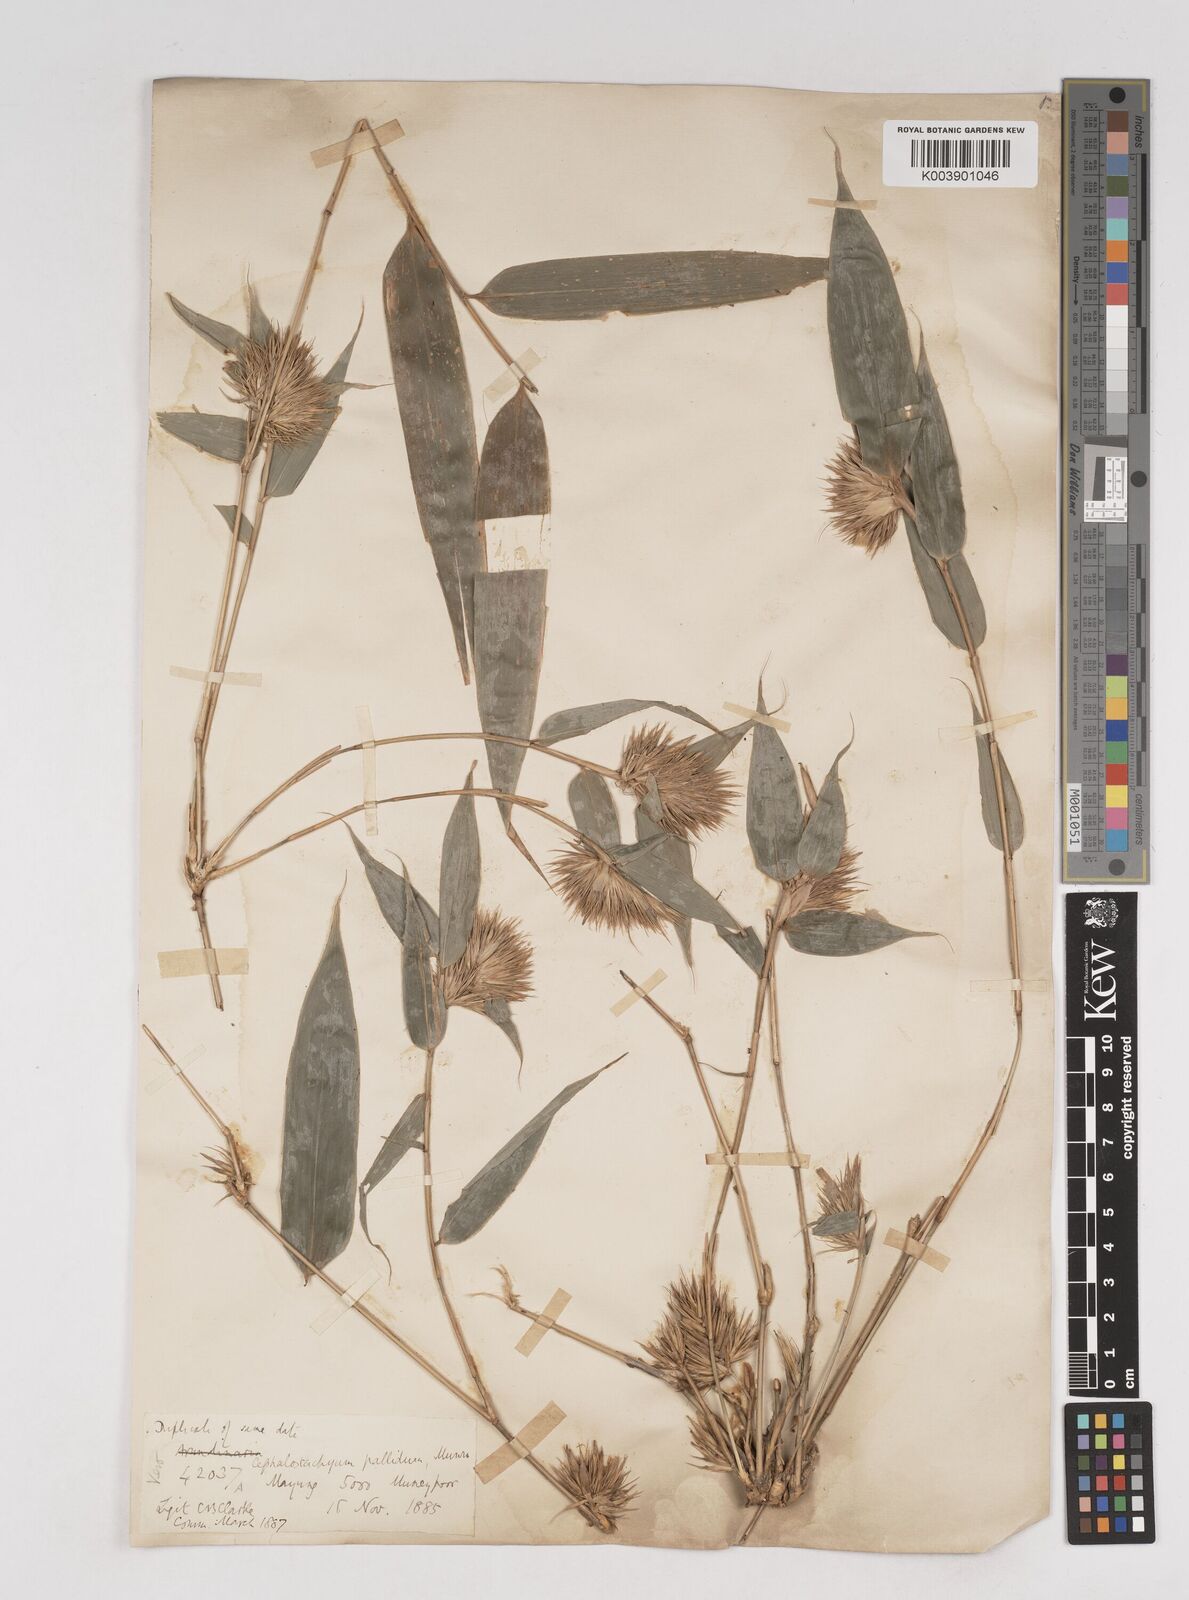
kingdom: Plantae
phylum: Tracheophyta
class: Liliopsida
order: Poales
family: Poaceae
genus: Cephalostachyum
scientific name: Cephalostachyum pallidum
